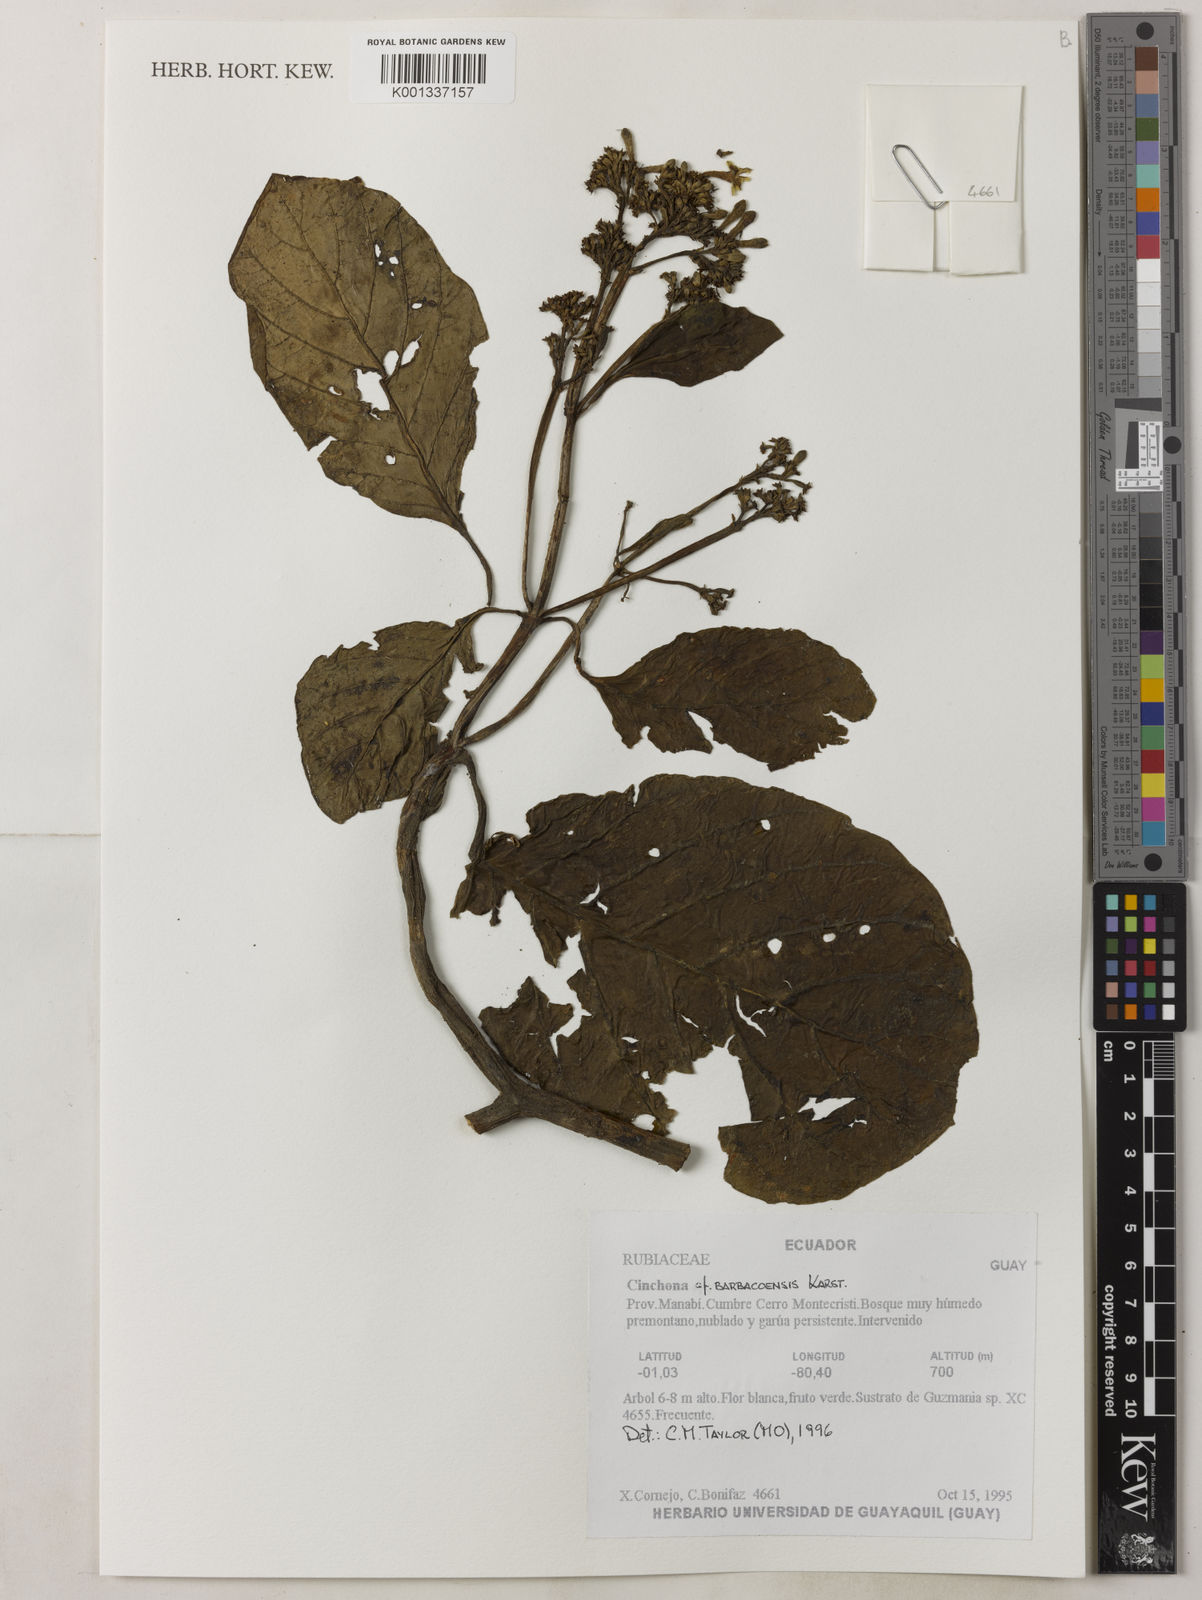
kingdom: Plantae
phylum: Tracheophyta
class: Magnoliopsida
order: Gentianales
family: Rubiaceae
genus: Cinchona
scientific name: Cinchona barbacoensis
